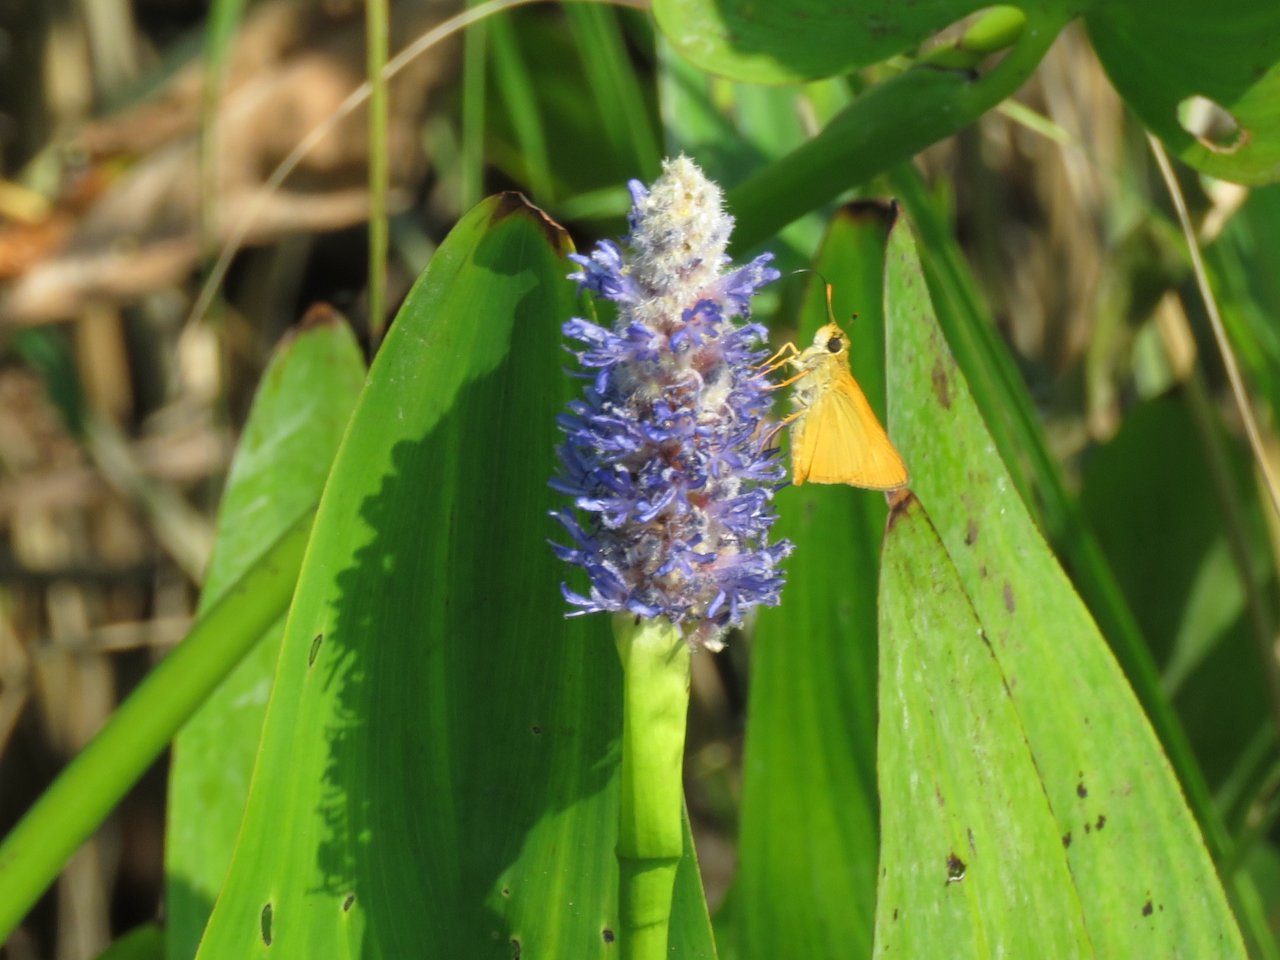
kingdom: Animalia
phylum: Arthropoda
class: Insecta
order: Lepidoptera
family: Hesperiidae
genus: Atrytone
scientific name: Atrytone delaware
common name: Delaware Skipper
